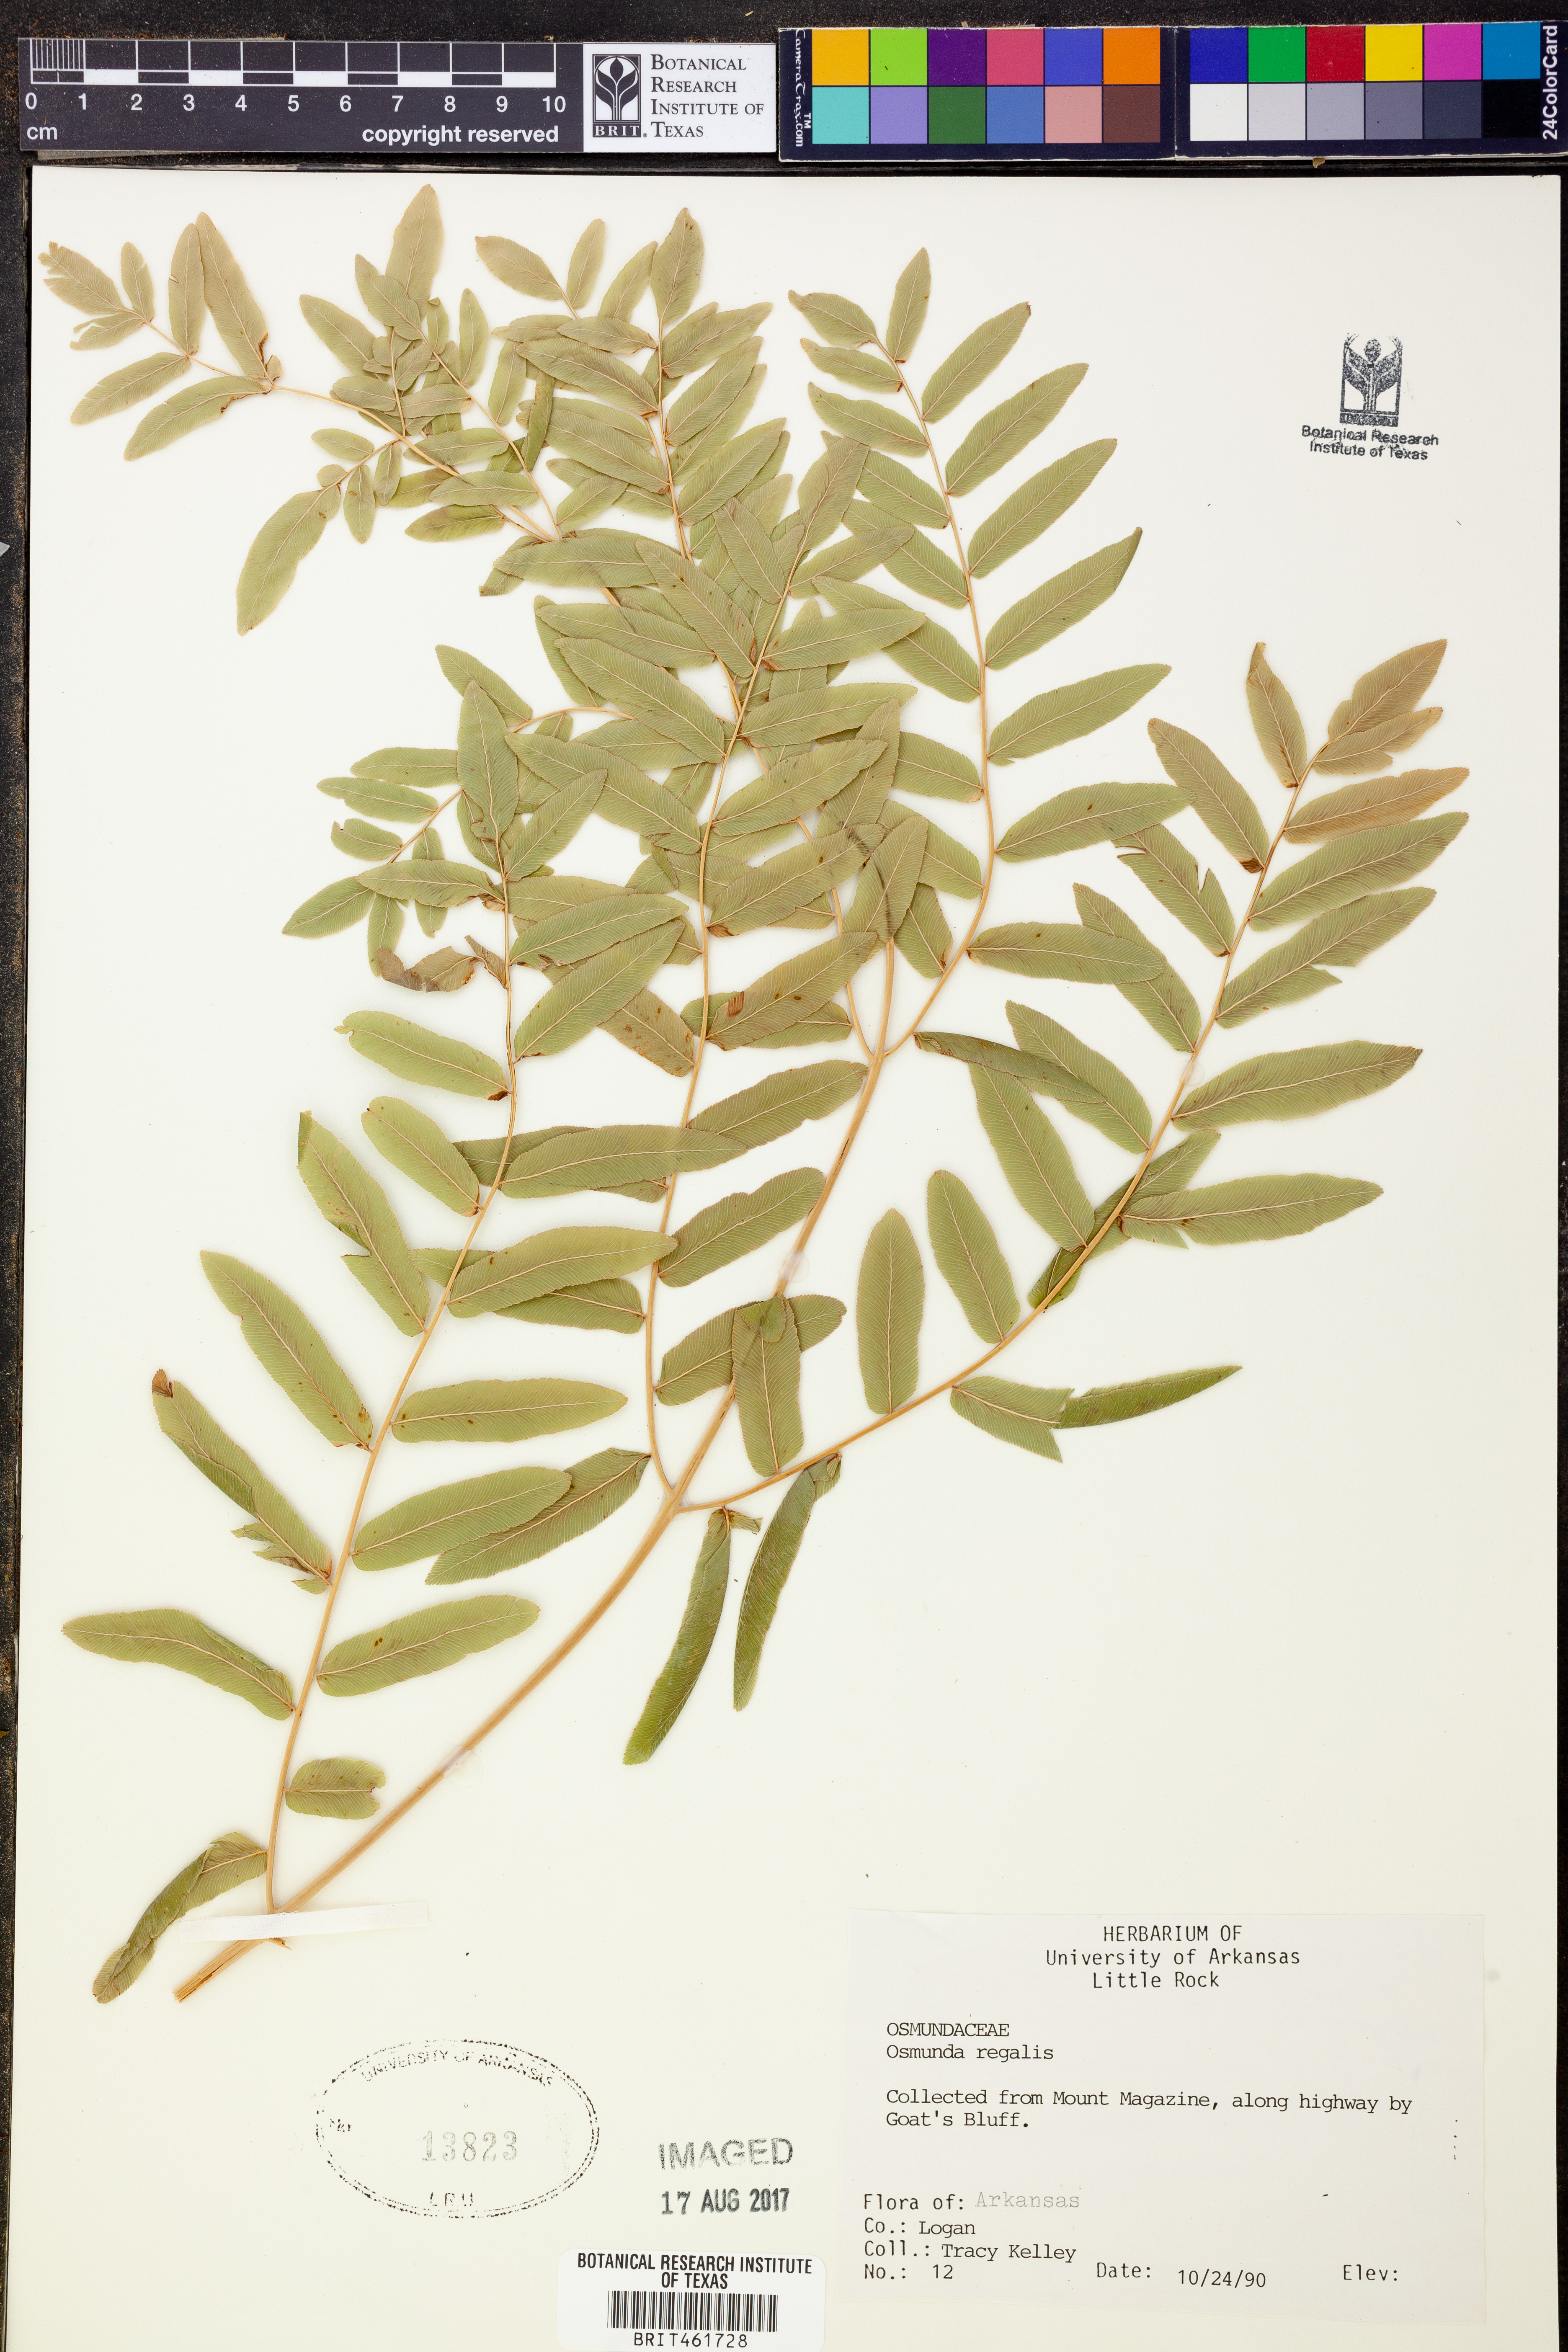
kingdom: Plantae
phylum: Tracheophyta
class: Polypodiopsida
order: Osmundales
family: Osmundaceae
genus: Osmunda
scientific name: Osmunda regalis
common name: Royal fern
